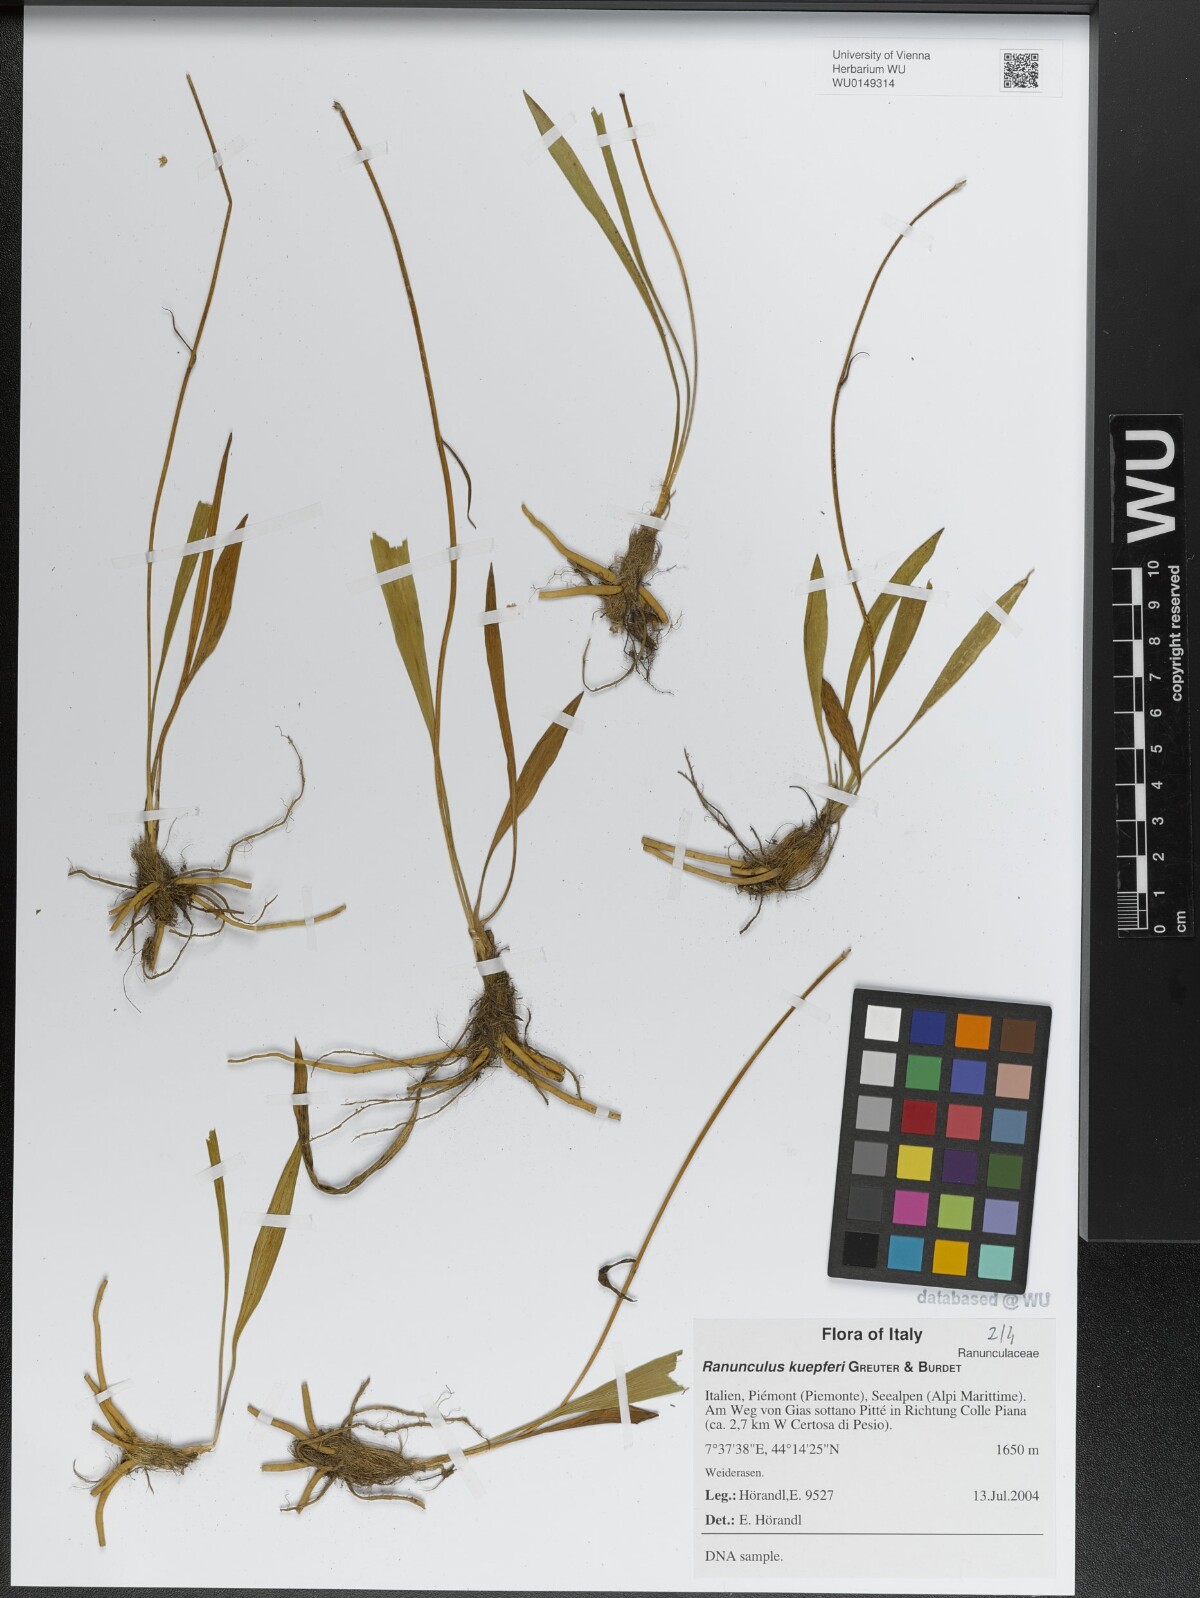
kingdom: Plantae
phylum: Tracheophyta
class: Magnoliopsida
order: Ranunculales
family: Ranunculaceae
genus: Ranunculus
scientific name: Ranunculus kuepferi
